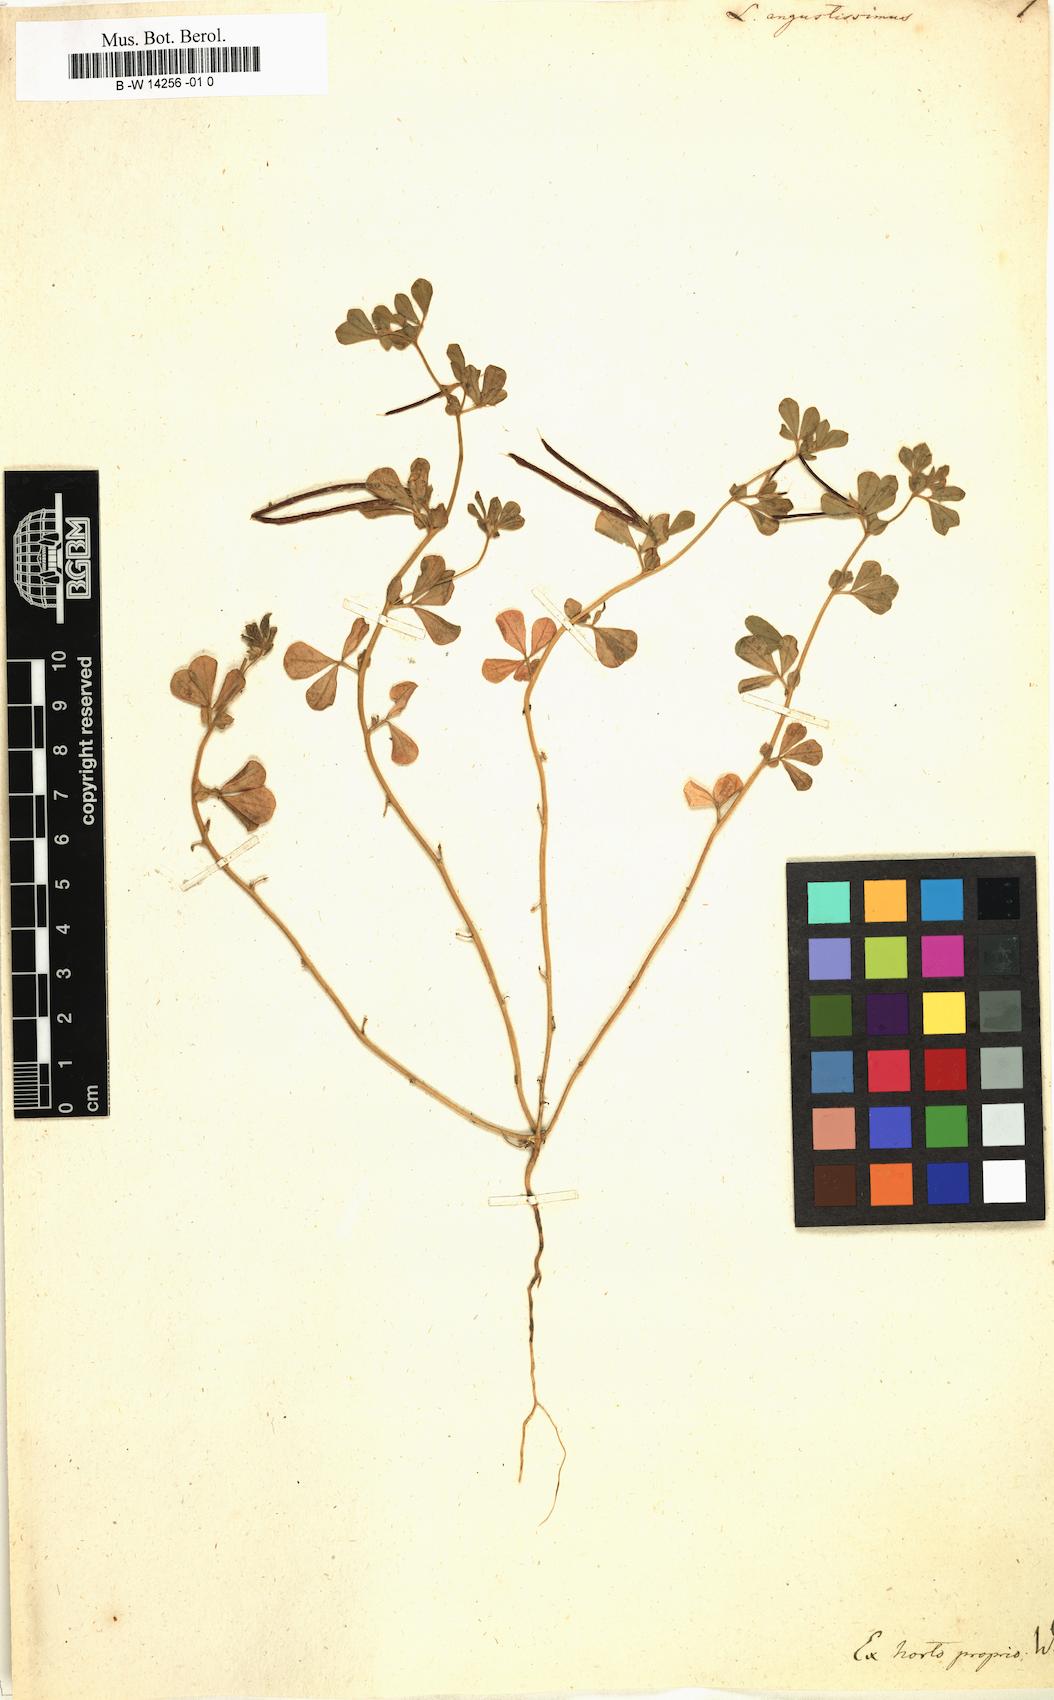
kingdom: Plantae
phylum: Tracheophyta
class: Magnoliopsida
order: Fabales
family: Fabaceae
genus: Lotus
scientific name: Lotus angustissimus
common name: Slender bird's-foot trefoil
